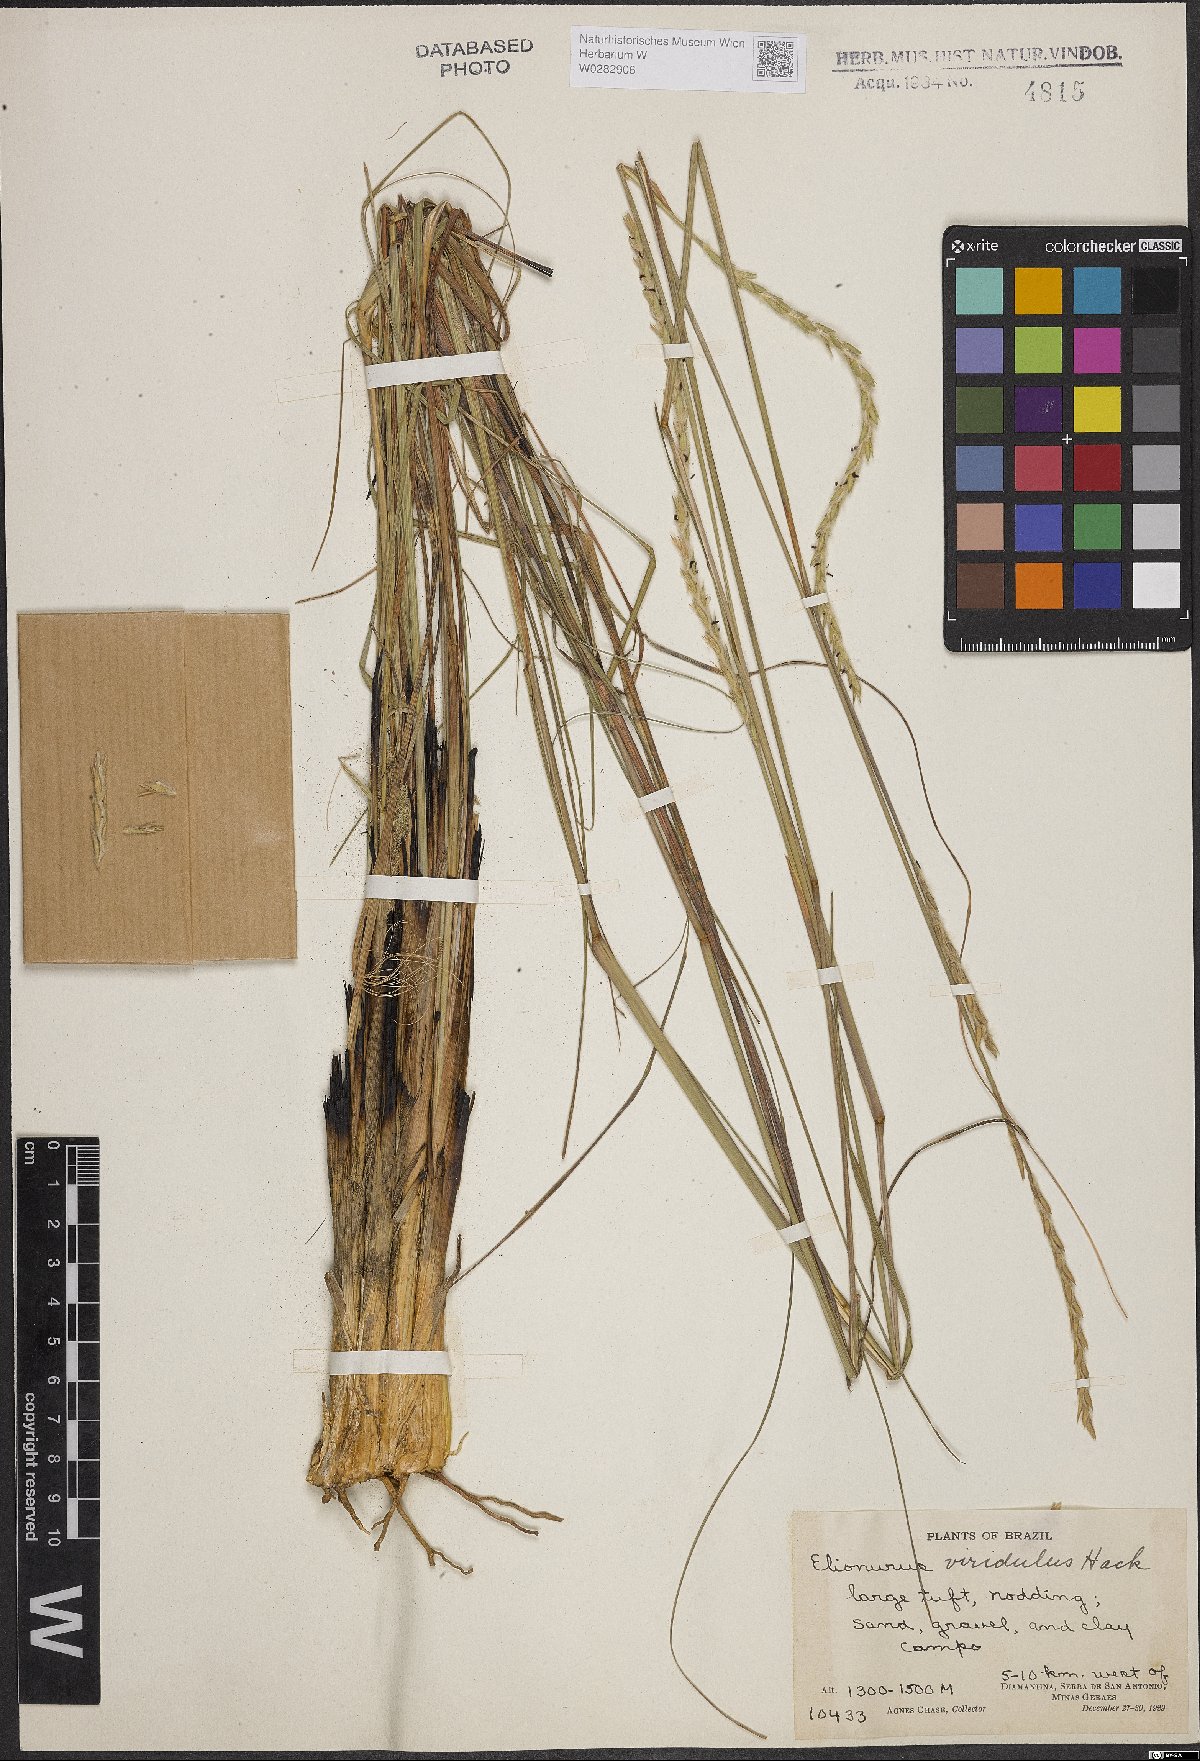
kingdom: Plantae
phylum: Tracheophyta
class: Liliopsida
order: Poales
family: Poaceae
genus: Elionurus
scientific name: Elionurus muticus
